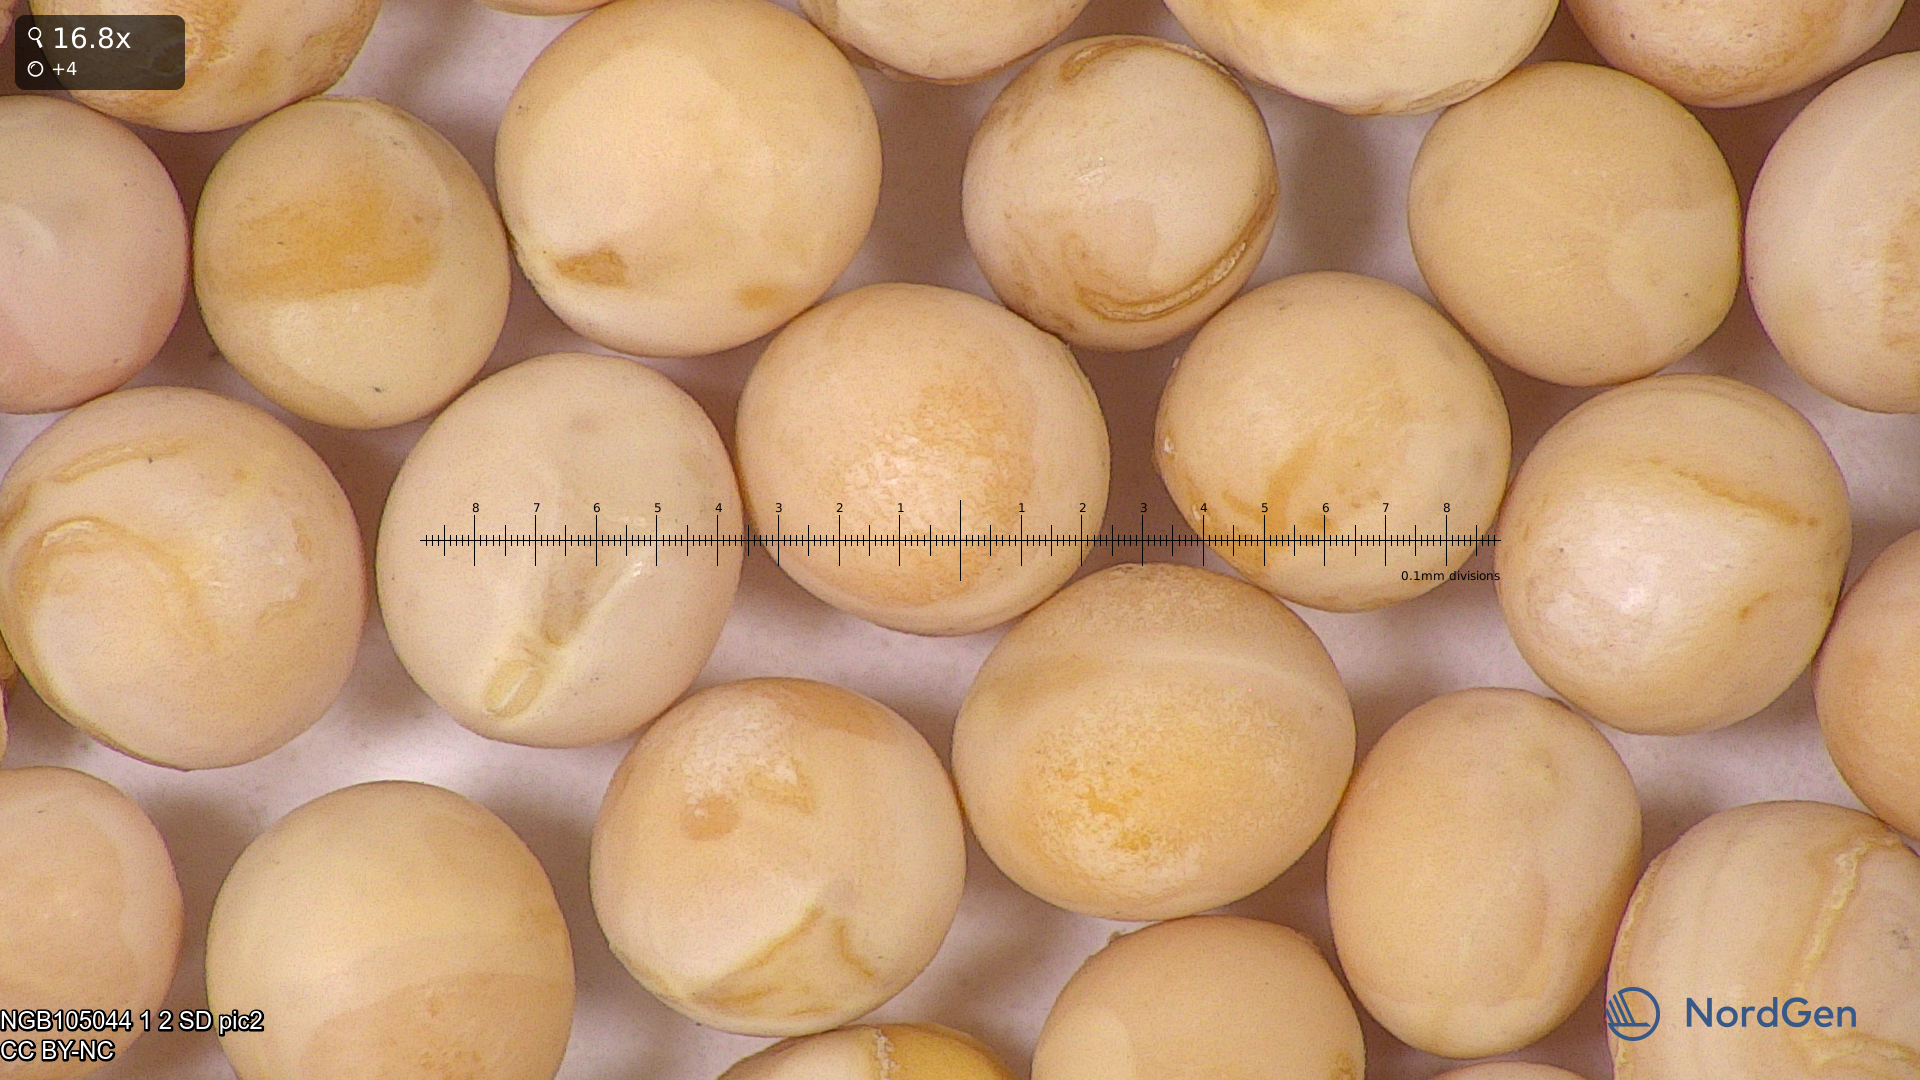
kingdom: Plantae
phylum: Tracheophyta
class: Magnoliopsida
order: Fabales
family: Fabaceae
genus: Lathyrus
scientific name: Lathyrus oleraceus
